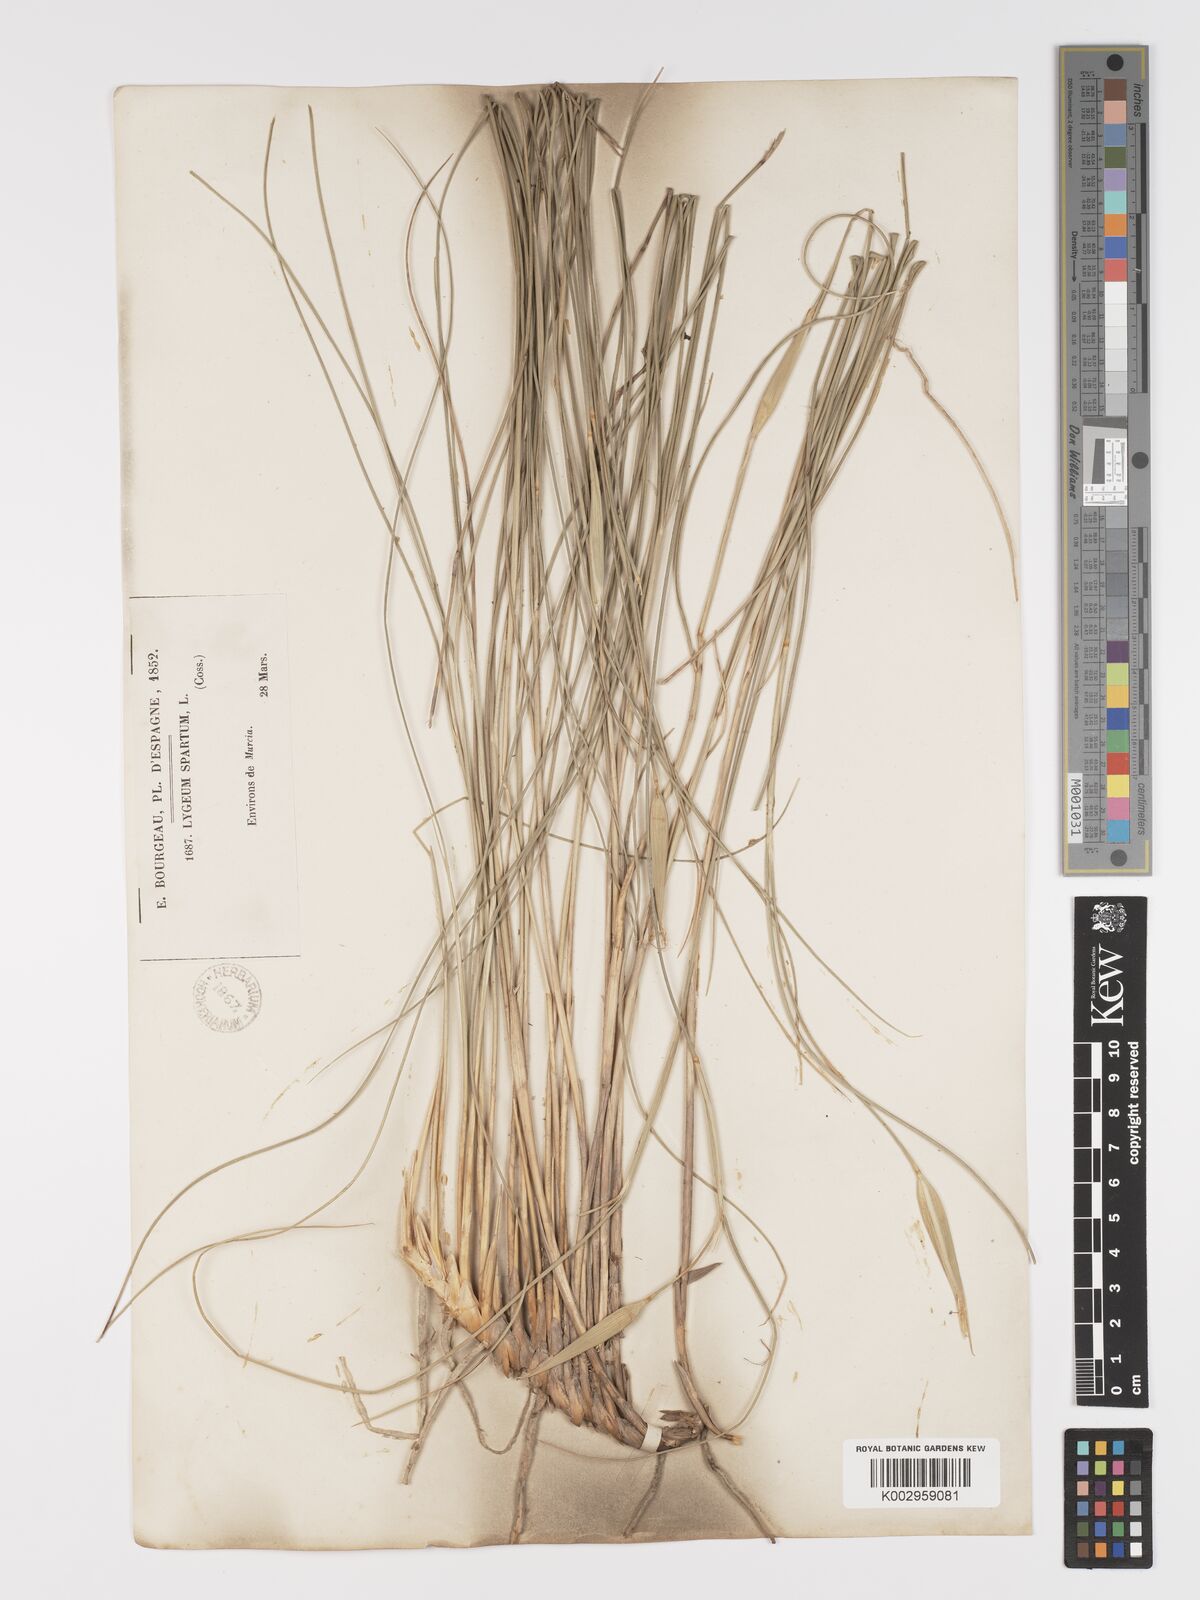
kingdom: Plantae
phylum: Tracheophyta
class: Liliopsida
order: Poales
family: Poaceae
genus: Lygeum
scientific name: Lygeum spartum
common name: Albardine
